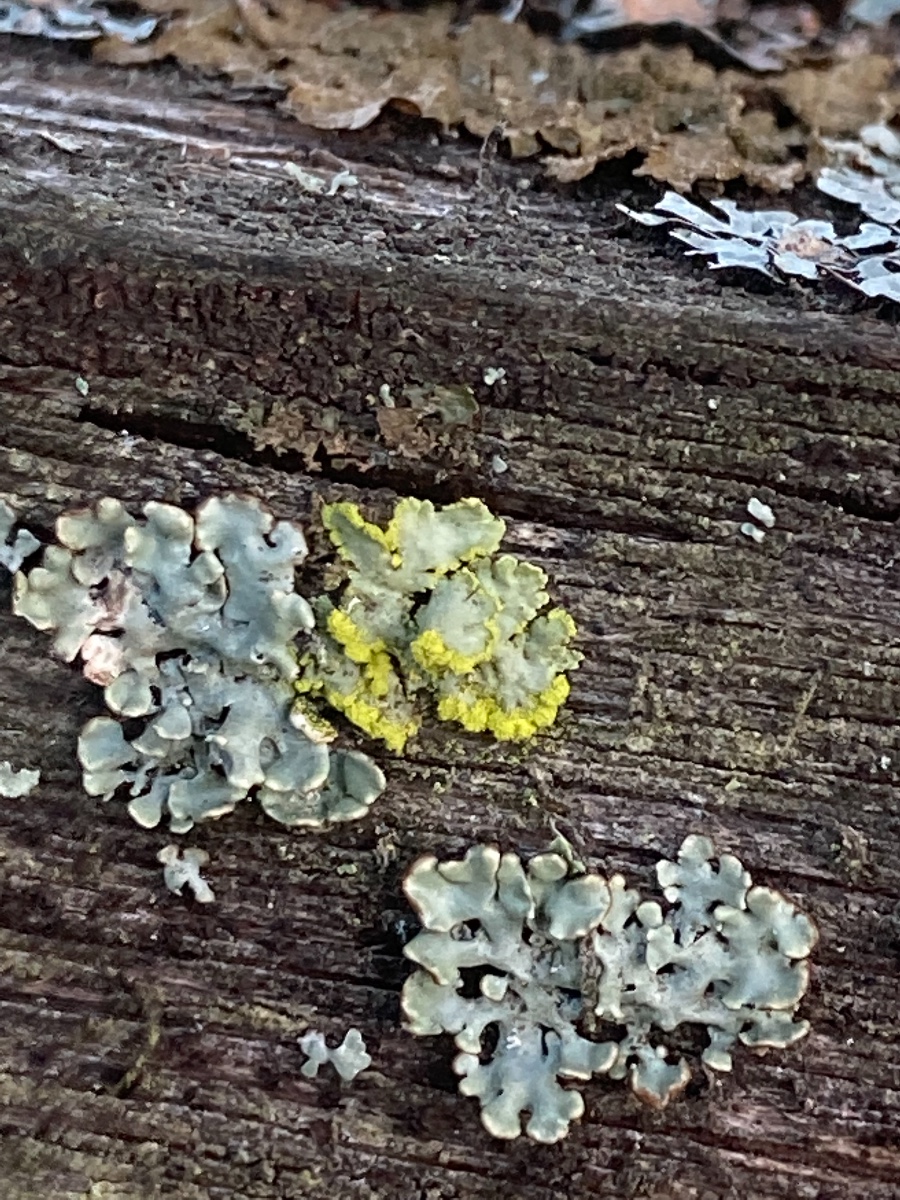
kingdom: Fungi
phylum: Ascomycota
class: Lecanoromycetes
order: Lecanorales
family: Parmeliaceae
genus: Vulpicida
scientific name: Vulpicida pinastri
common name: gul kruslav
